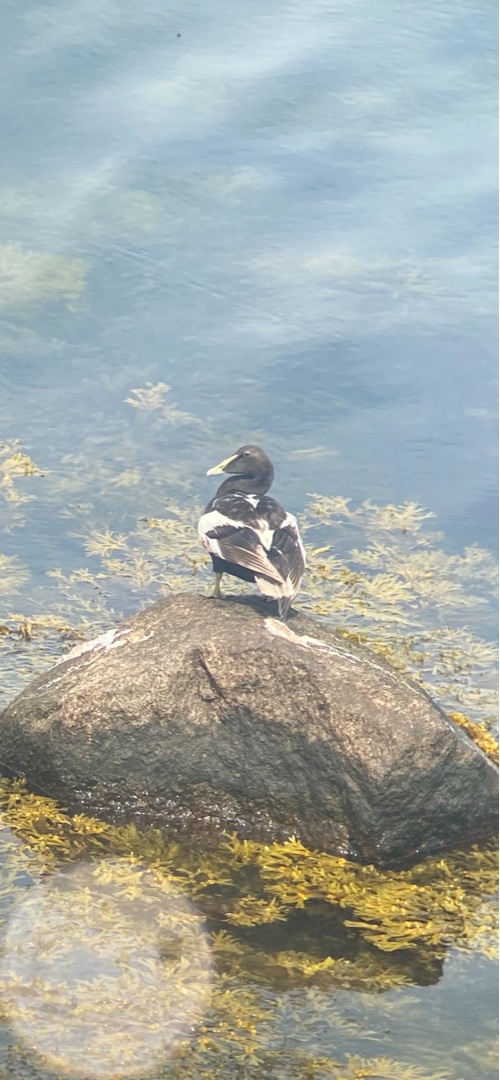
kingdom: Animalia
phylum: Chordata
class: Aves
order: Anseriformes
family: Anatidae
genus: Somateria
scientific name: Somateria mollissima
